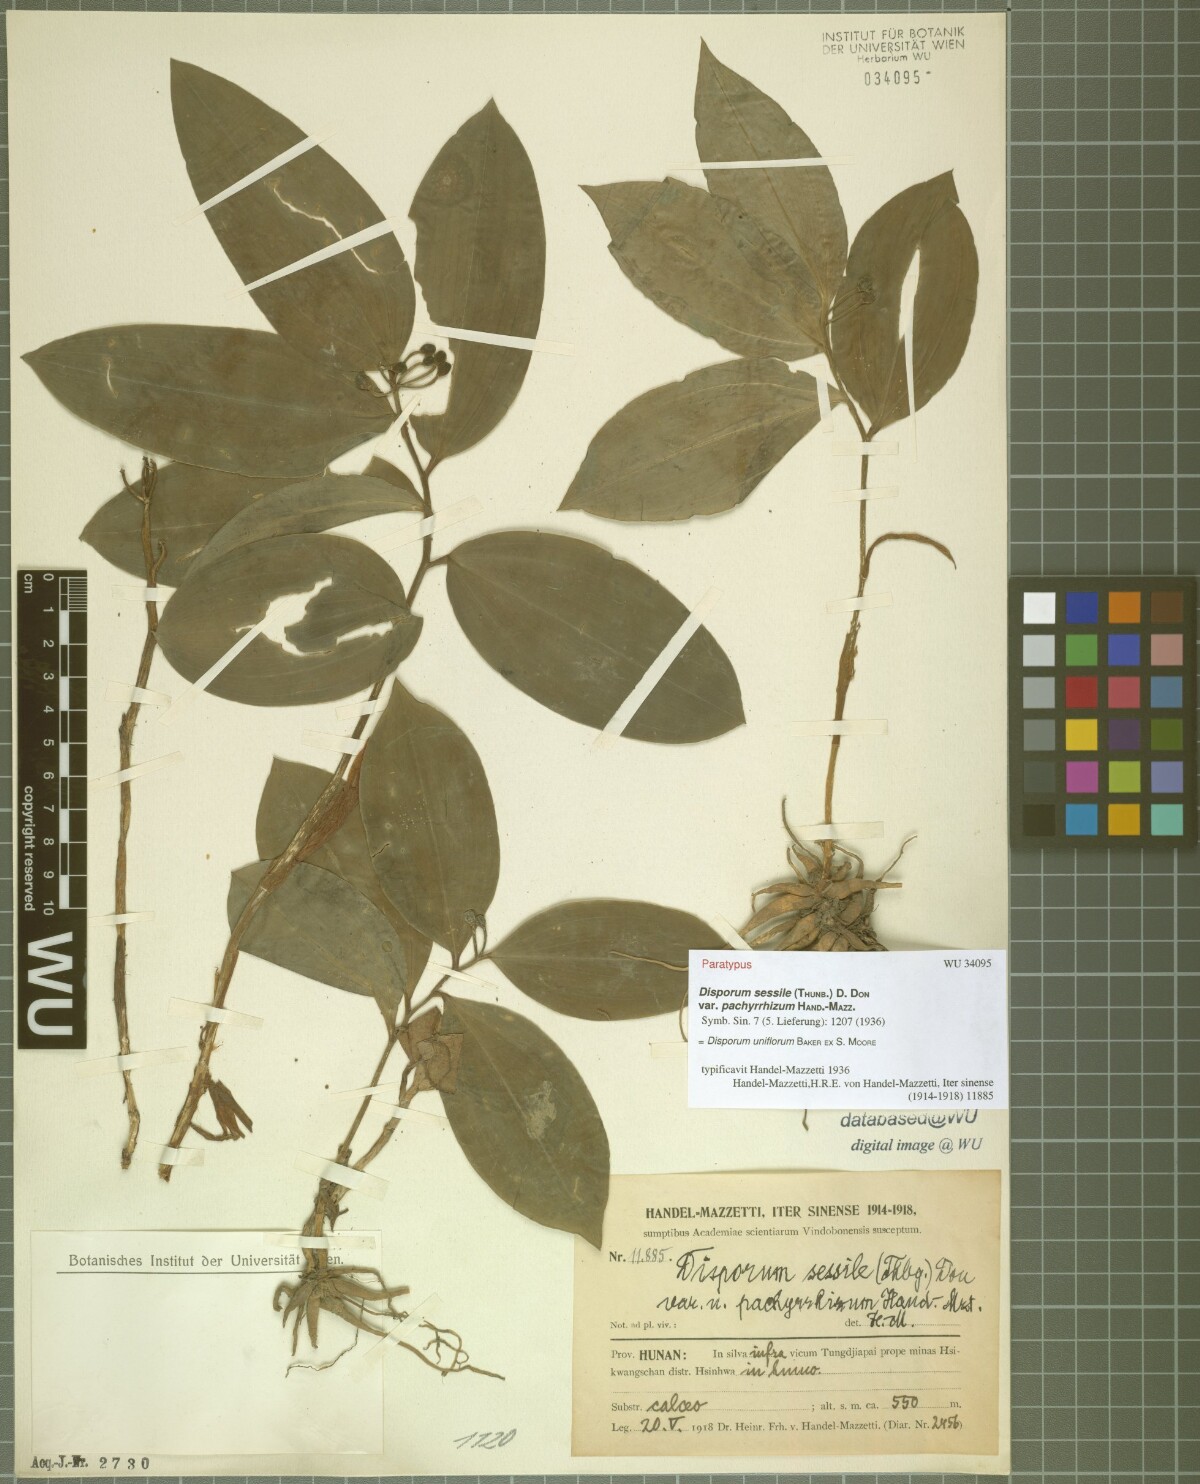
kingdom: Plantae
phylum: Tracheophyta
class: Liliopsida
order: Liliales
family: Colchicaceae
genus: Disporum
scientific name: Disporum uniflorum
